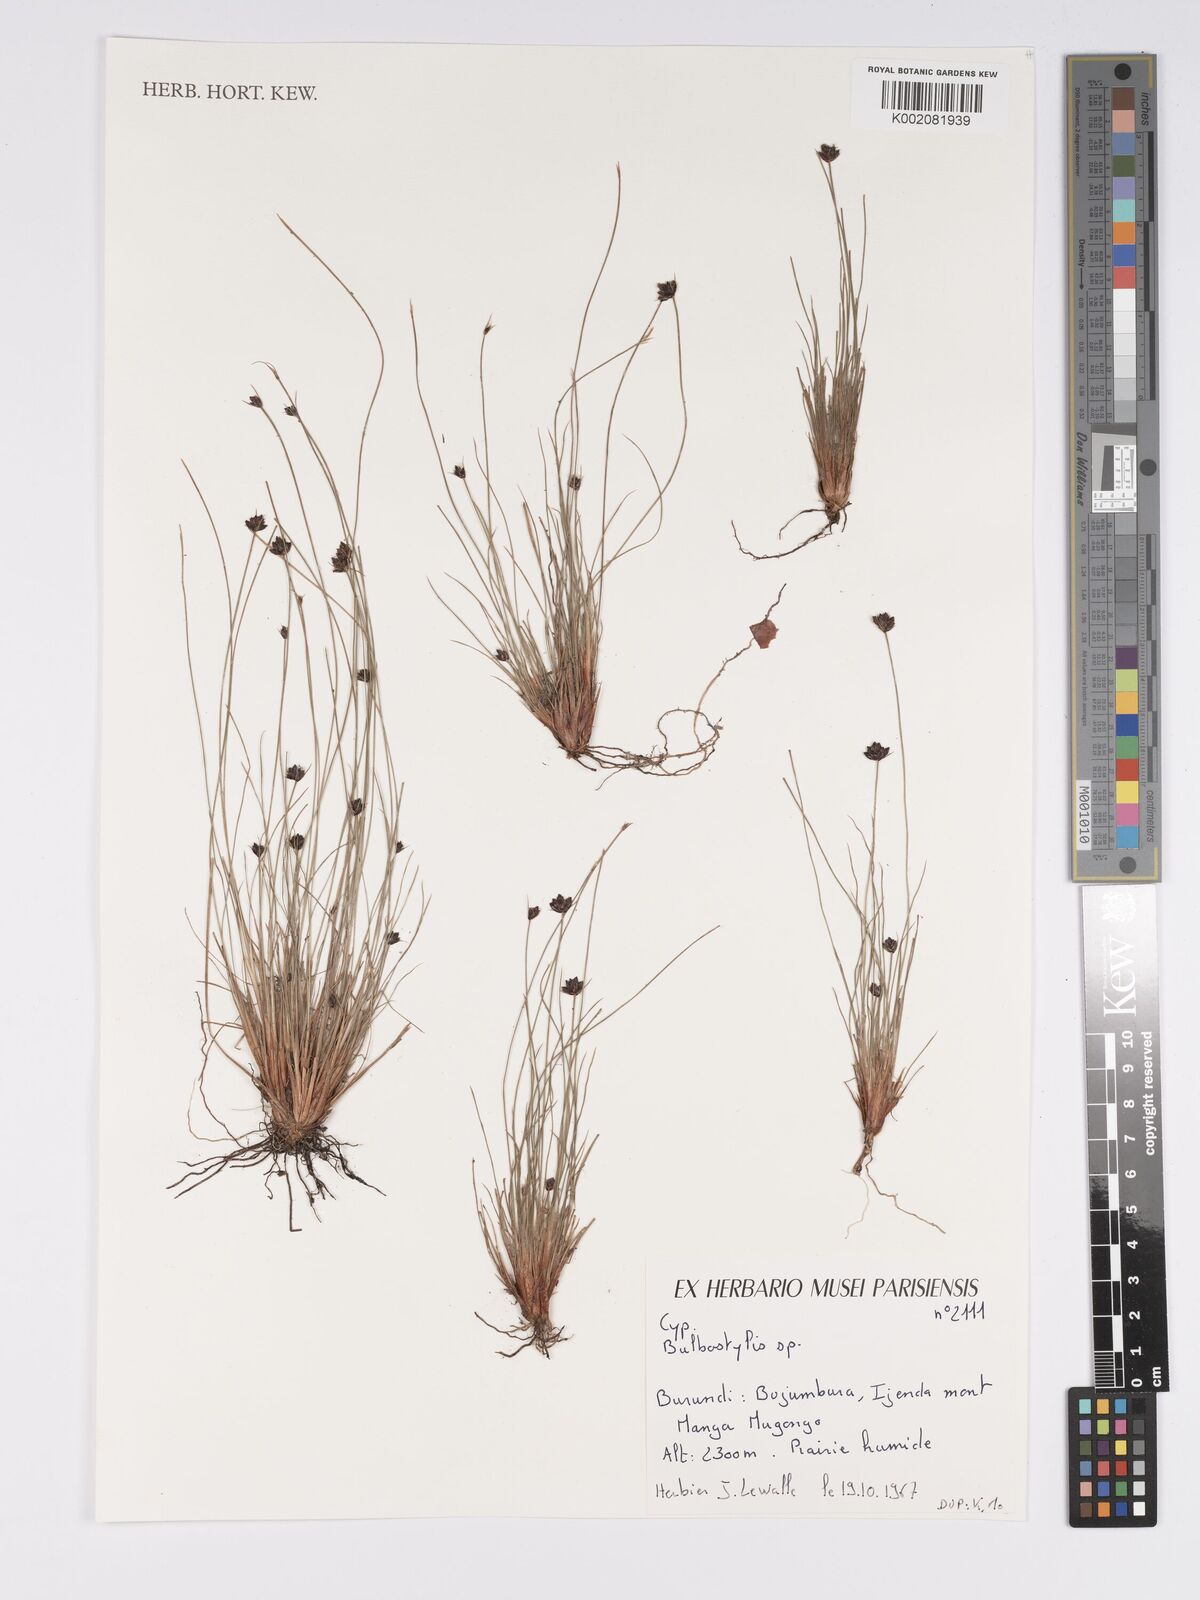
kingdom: Plantae
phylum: Tracheophyta
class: Liliopsida
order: Poales
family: Cyperaceae
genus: Bulbostylis
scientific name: Bulbostylis ugandensis
